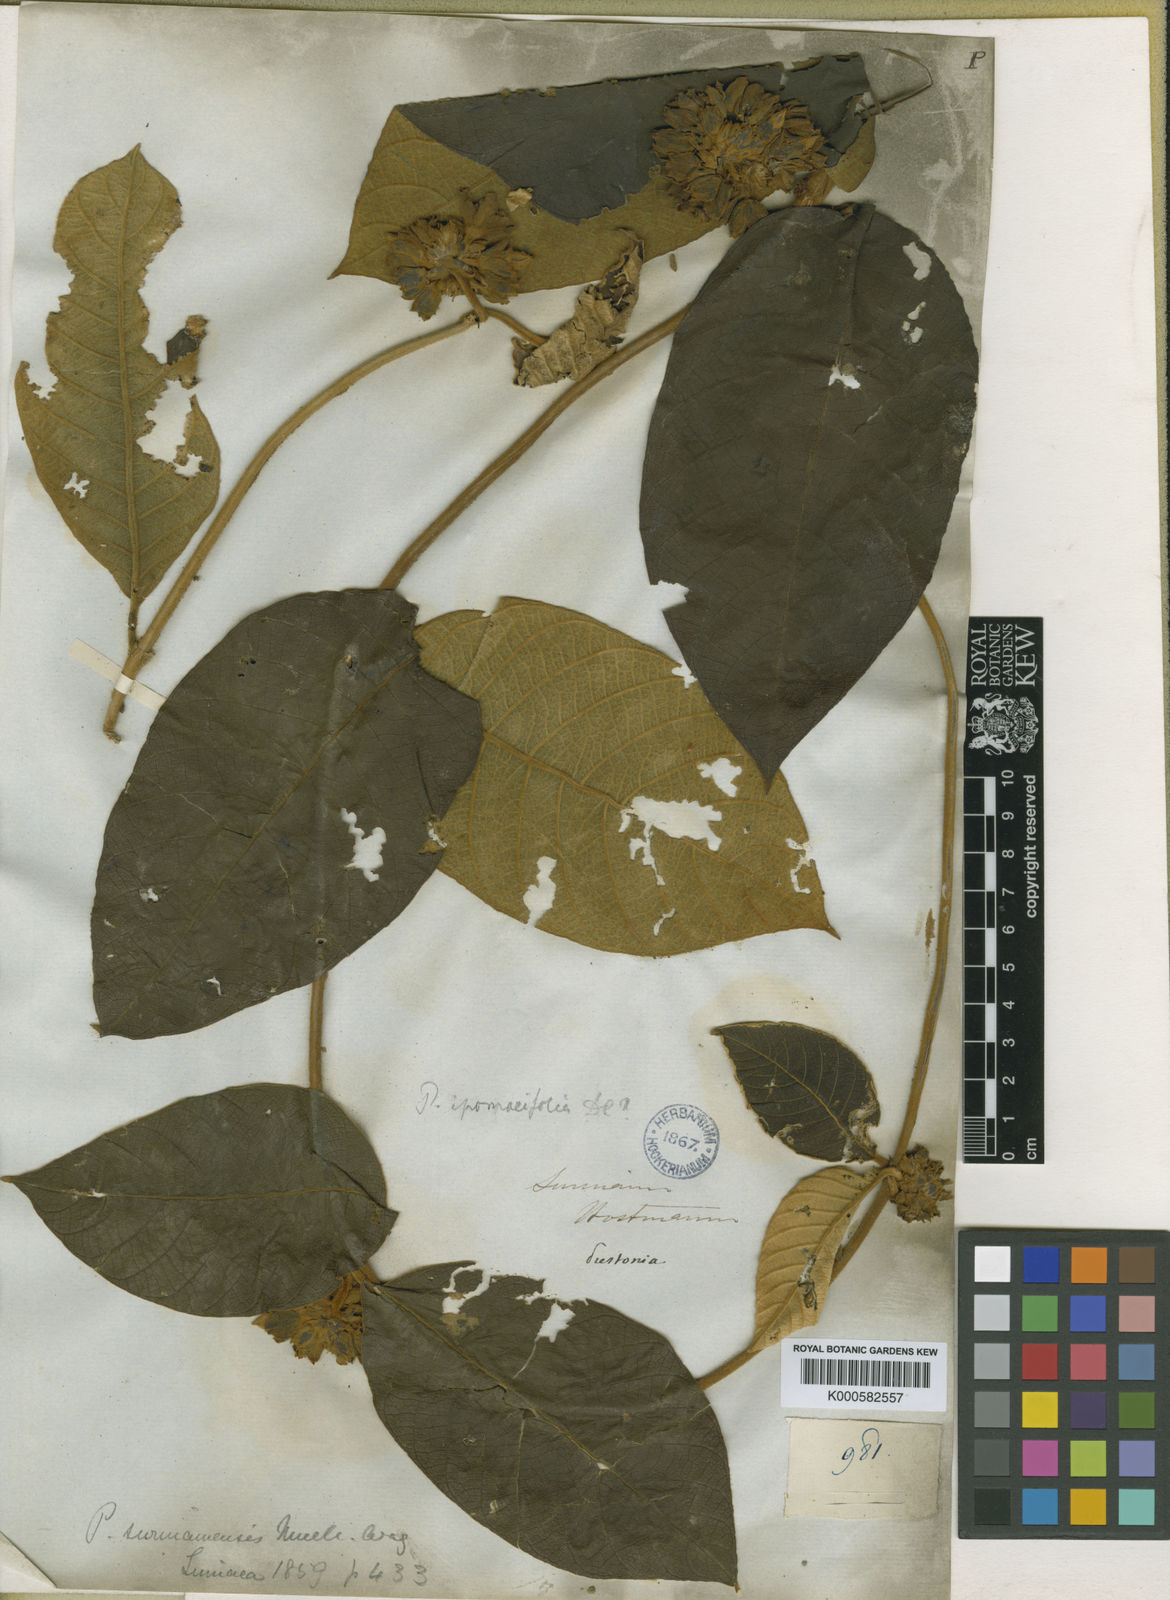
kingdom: Plantae
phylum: Tracheophyta
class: Magnoliopsida
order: Gentianales
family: Apocynaceae
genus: Prestonia
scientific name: Prestonia
